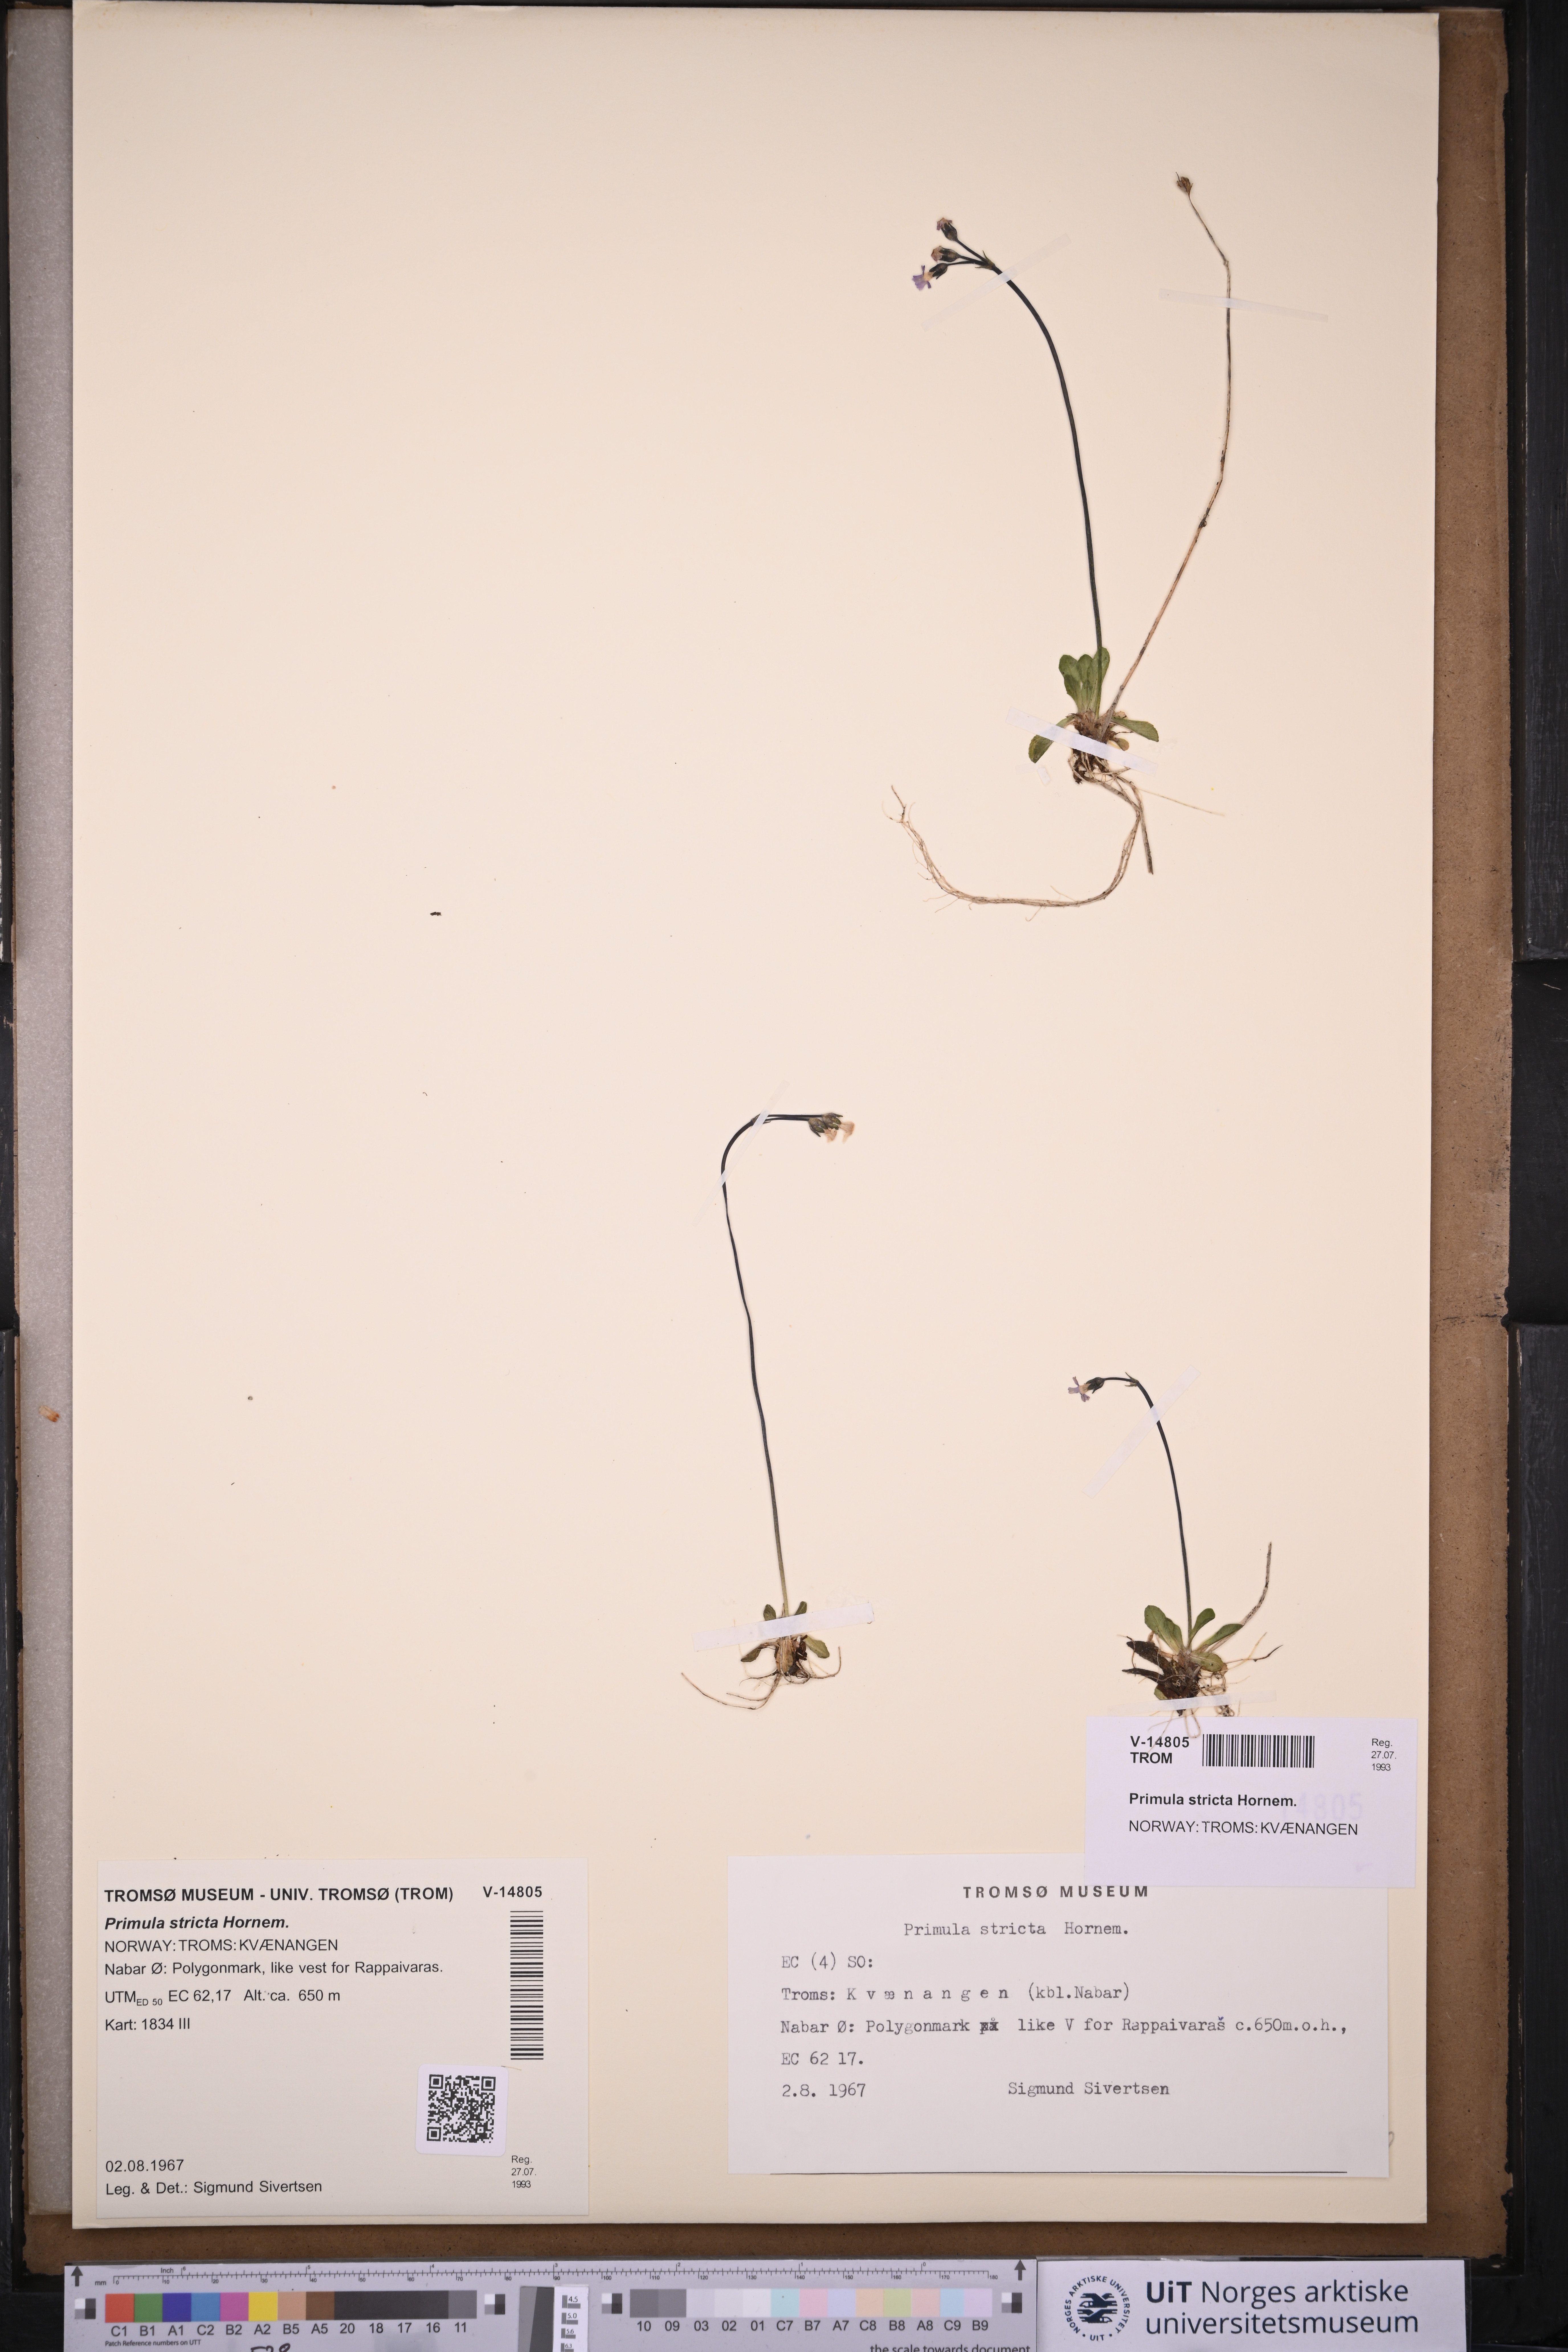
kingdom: Plantae
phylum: Tracheophyta
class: Magnoliopsida
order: Ericales
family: Primulaceae
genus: Primula
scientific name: Primula stricta
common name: Coastal primrose
